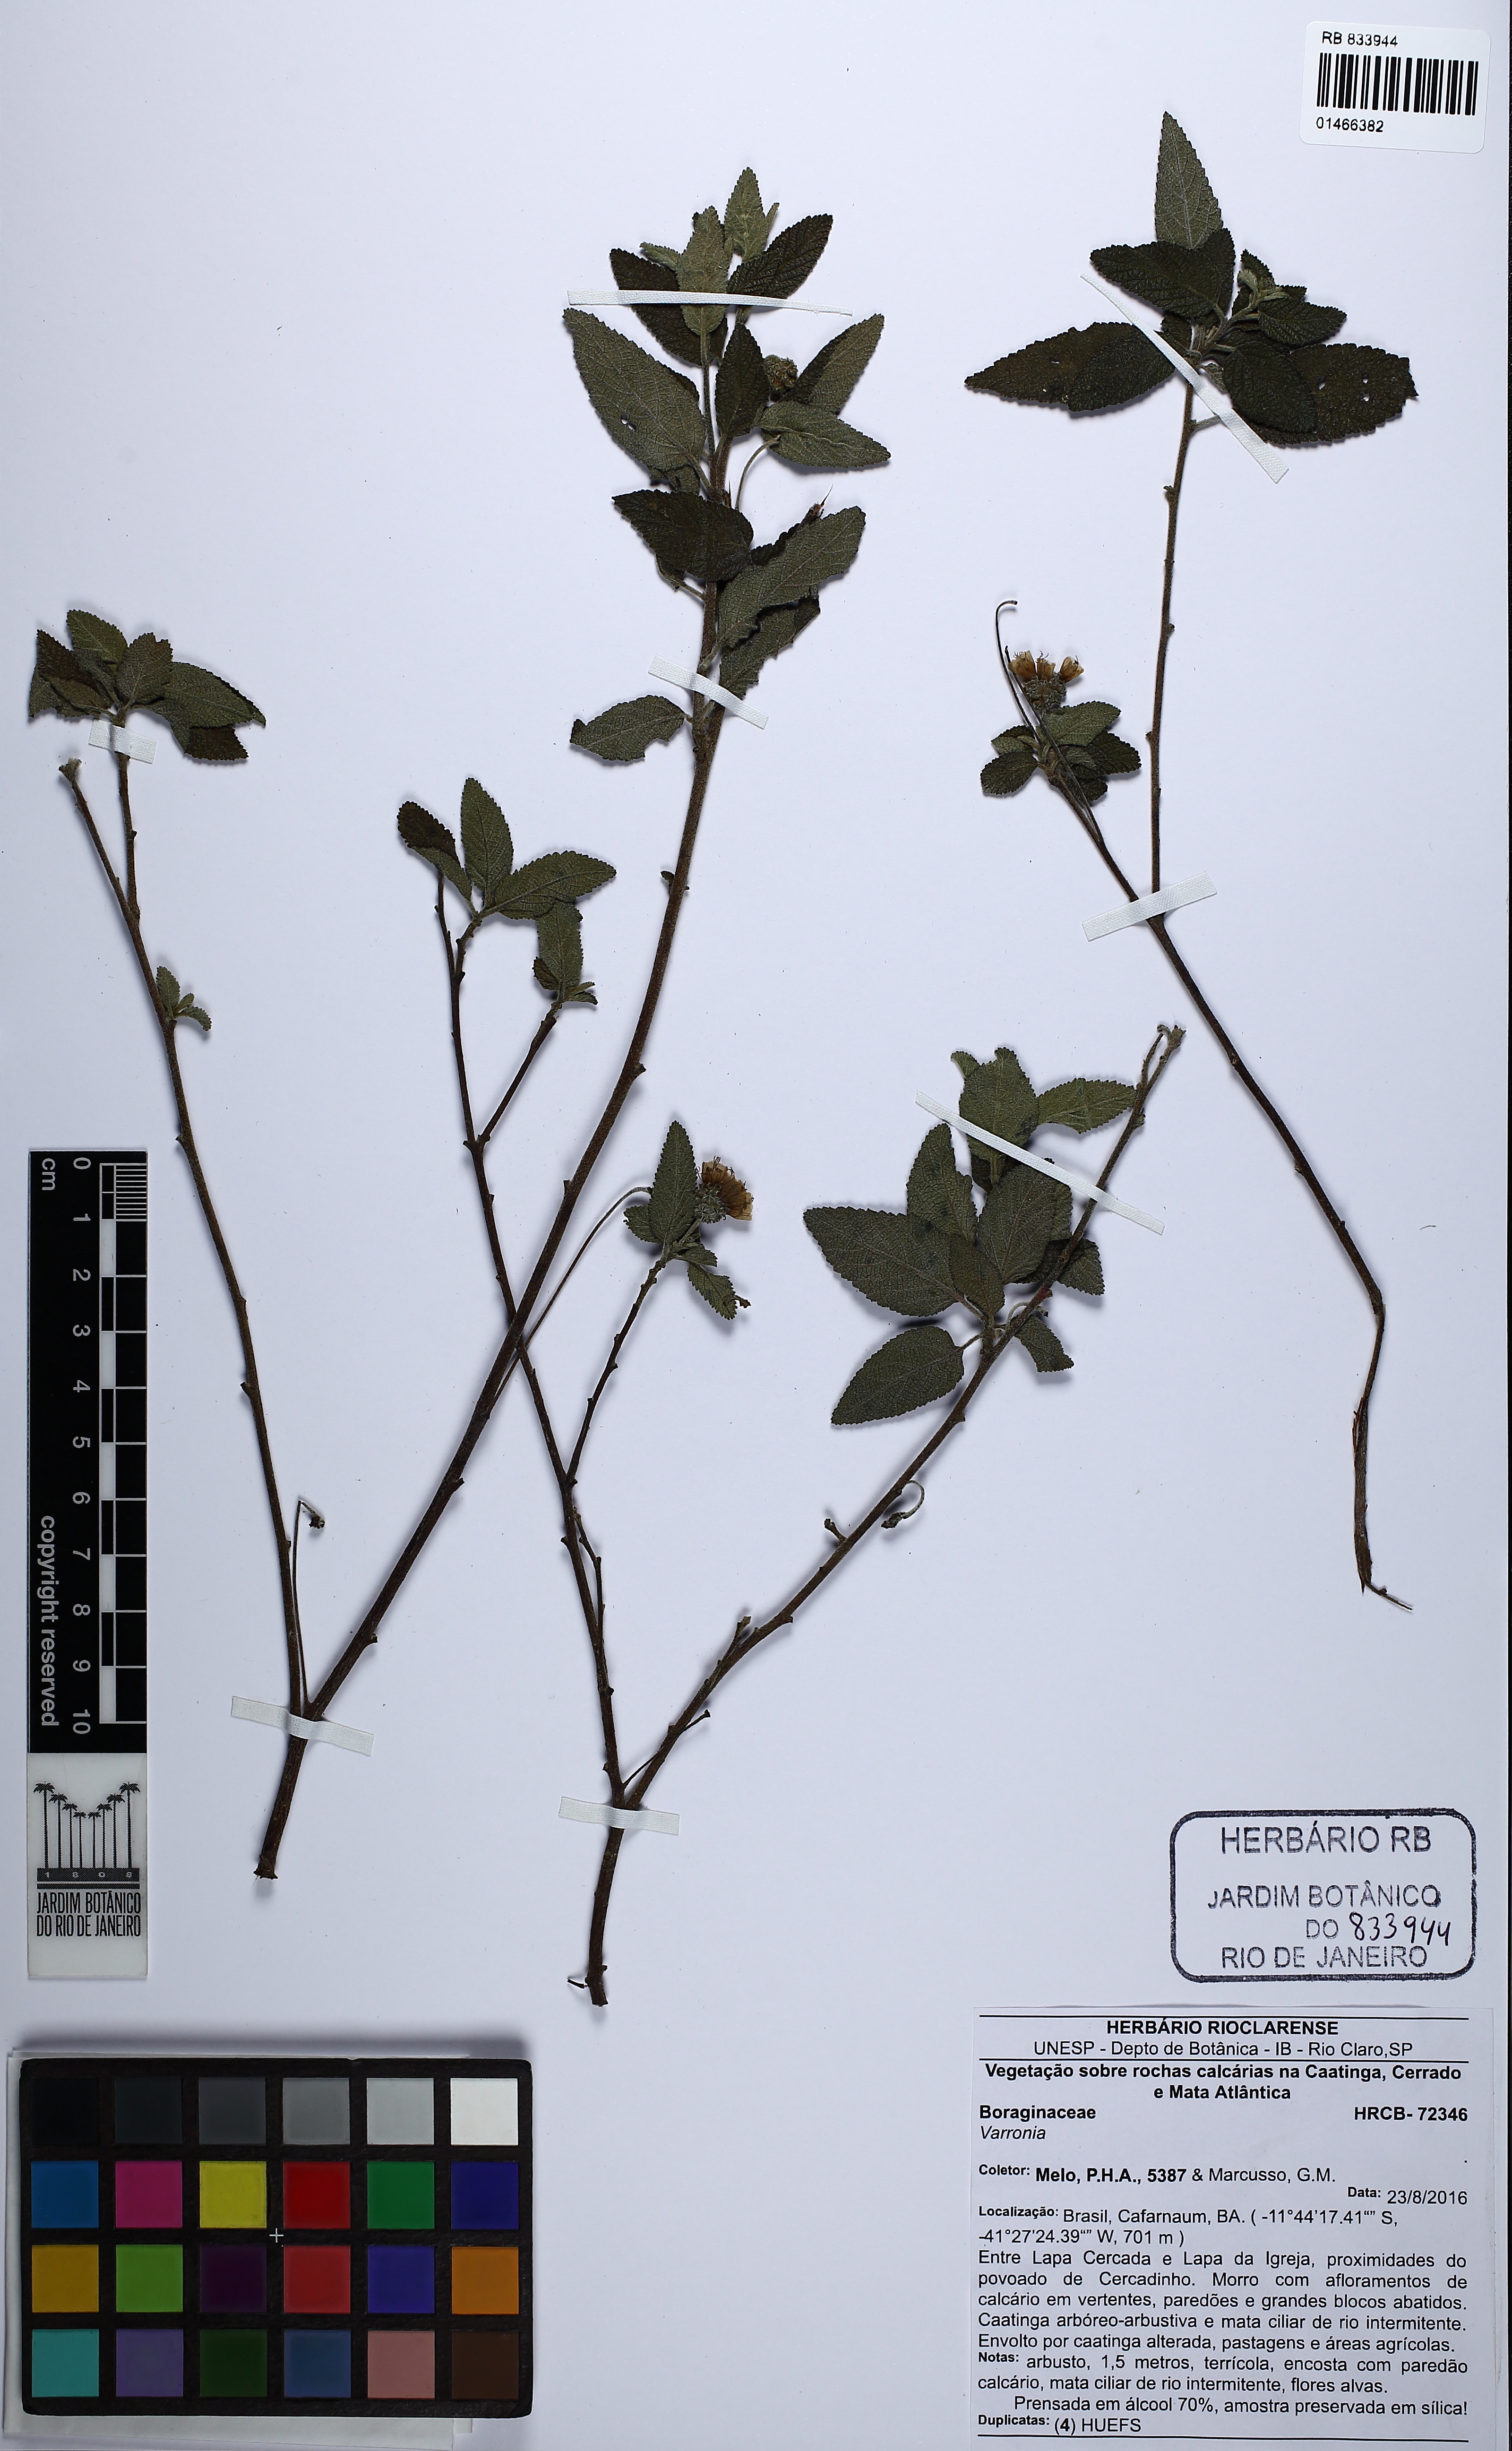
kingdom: Plantae
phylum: Tracheophyta
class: Magnoliopsida
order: Boraginales
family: Cordiaceae
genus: Varronia
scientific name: Varronia
